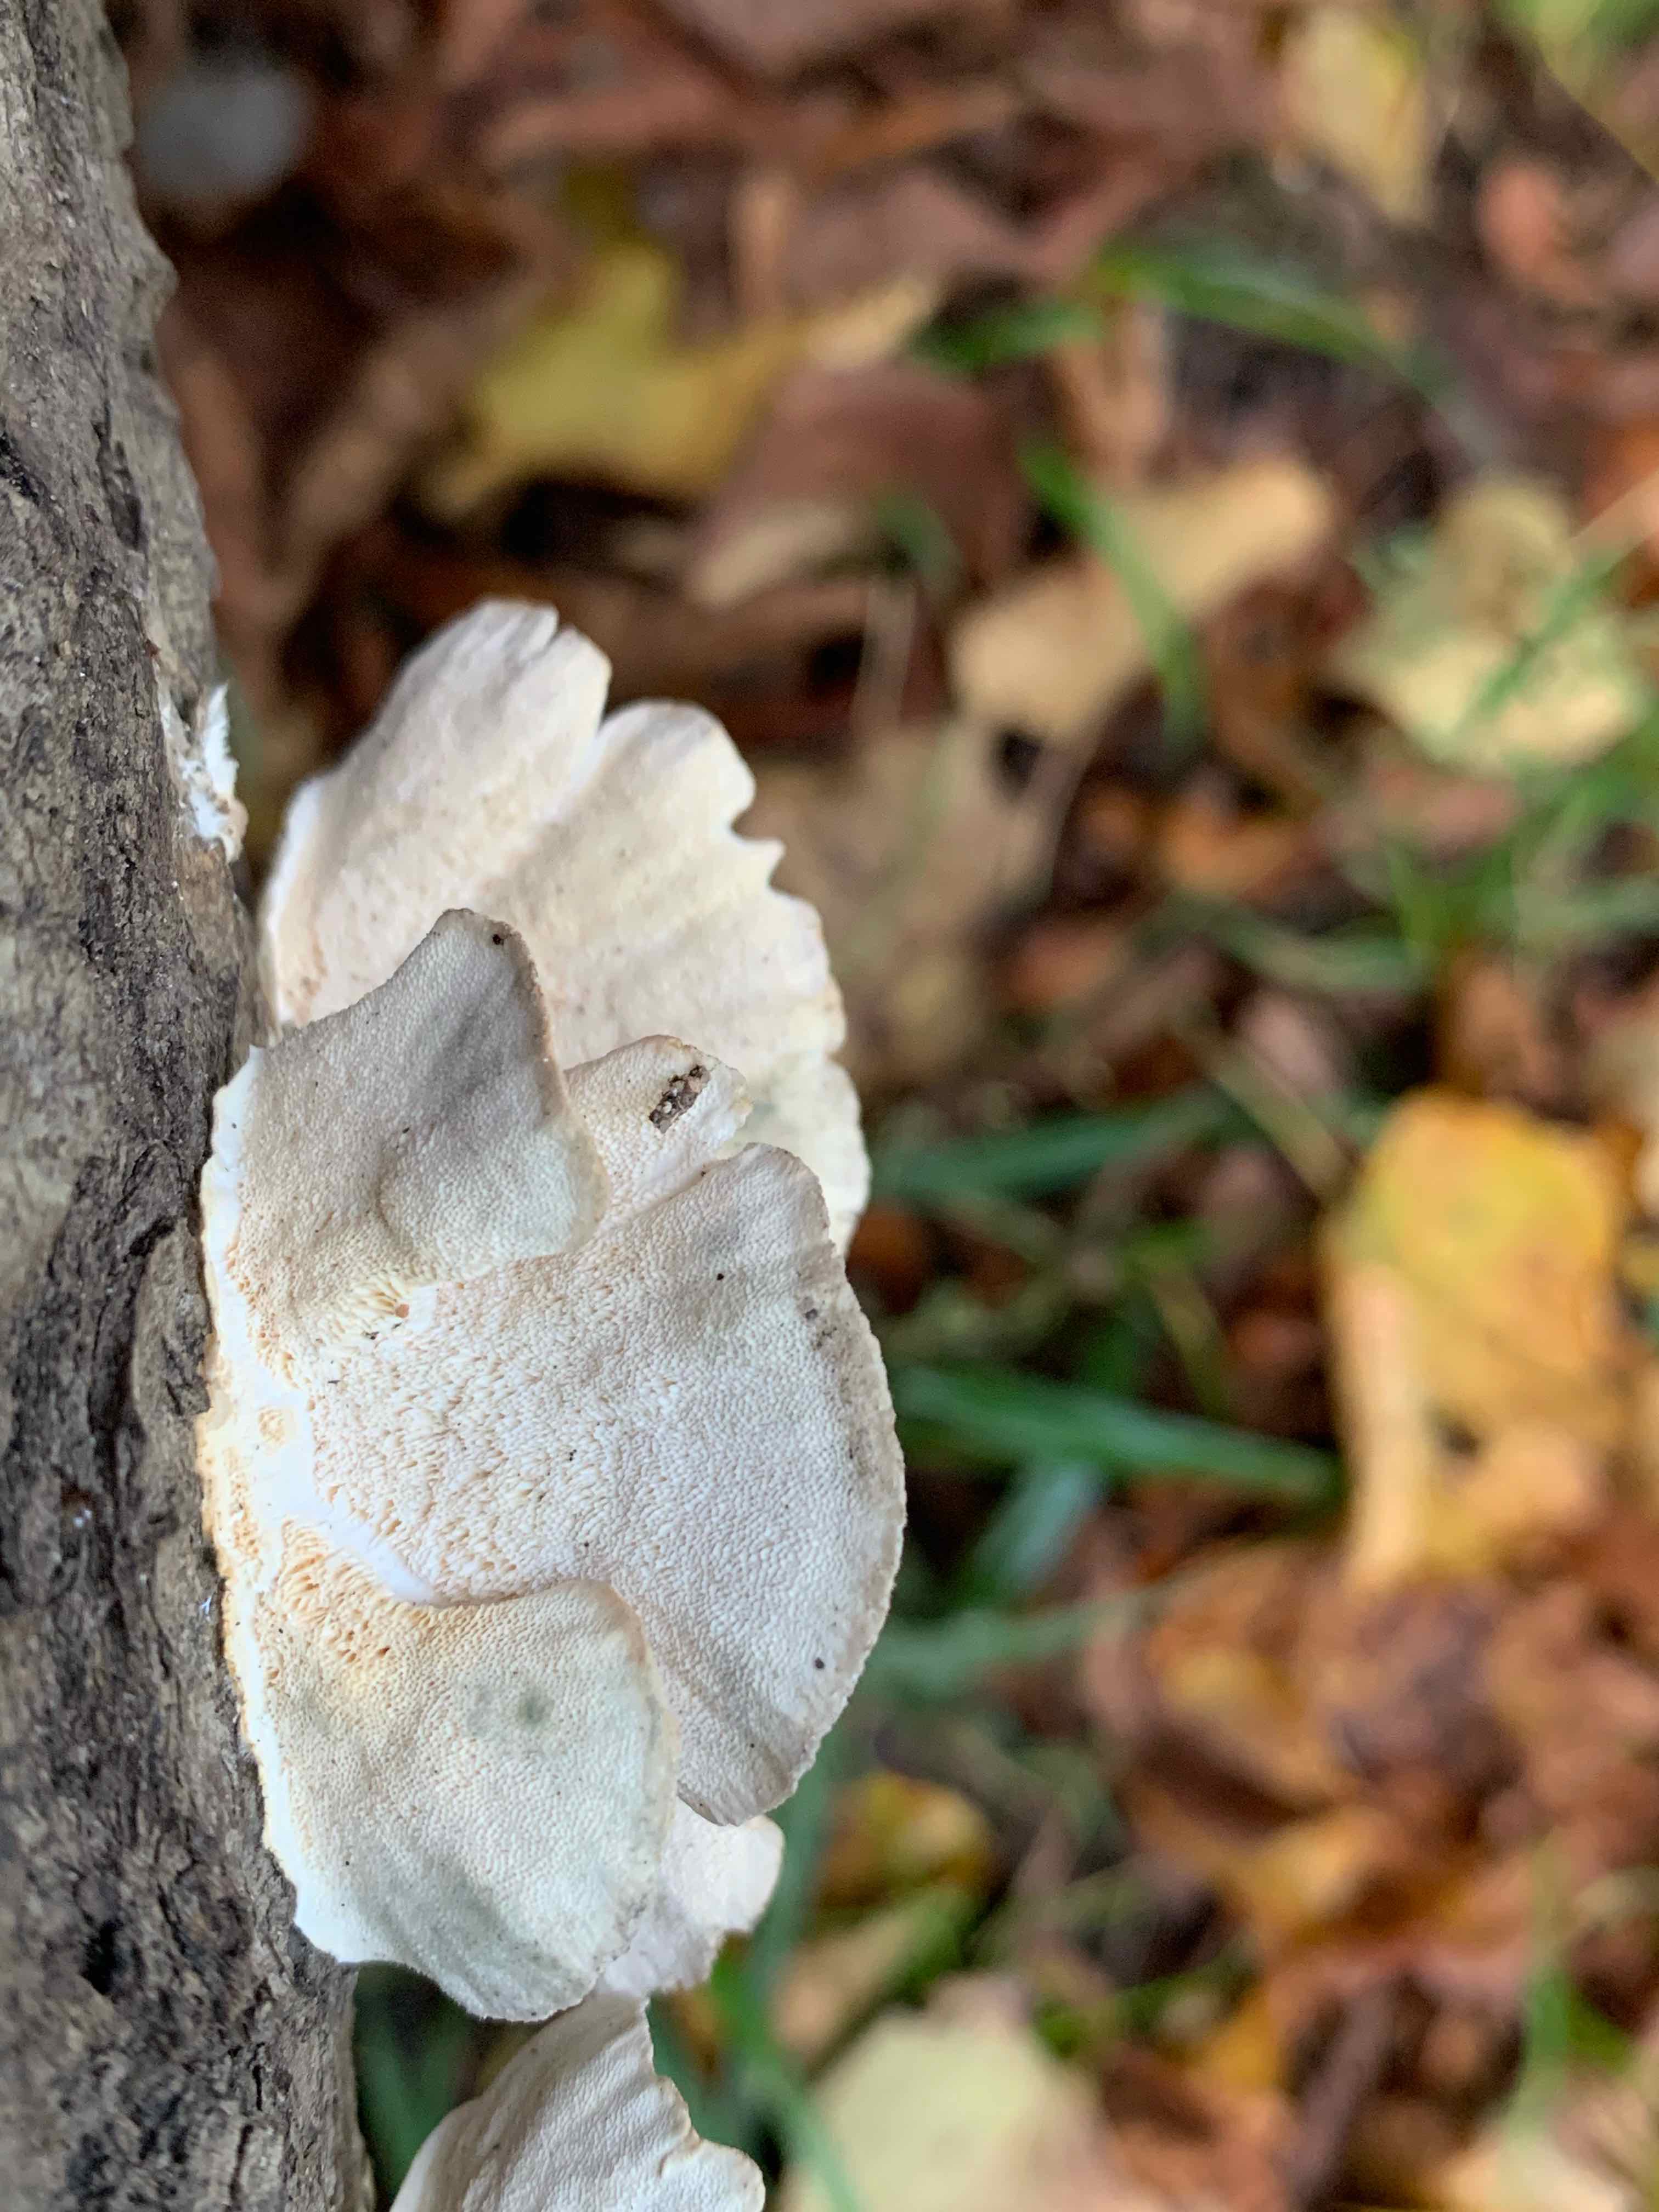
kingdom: Fungi
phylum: Basidiomycota
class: Agaricomycetes
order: Polyporales
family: Polyporaceae
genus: Trametes
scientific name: Trametes versicolor
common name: broget læderporesvamp
